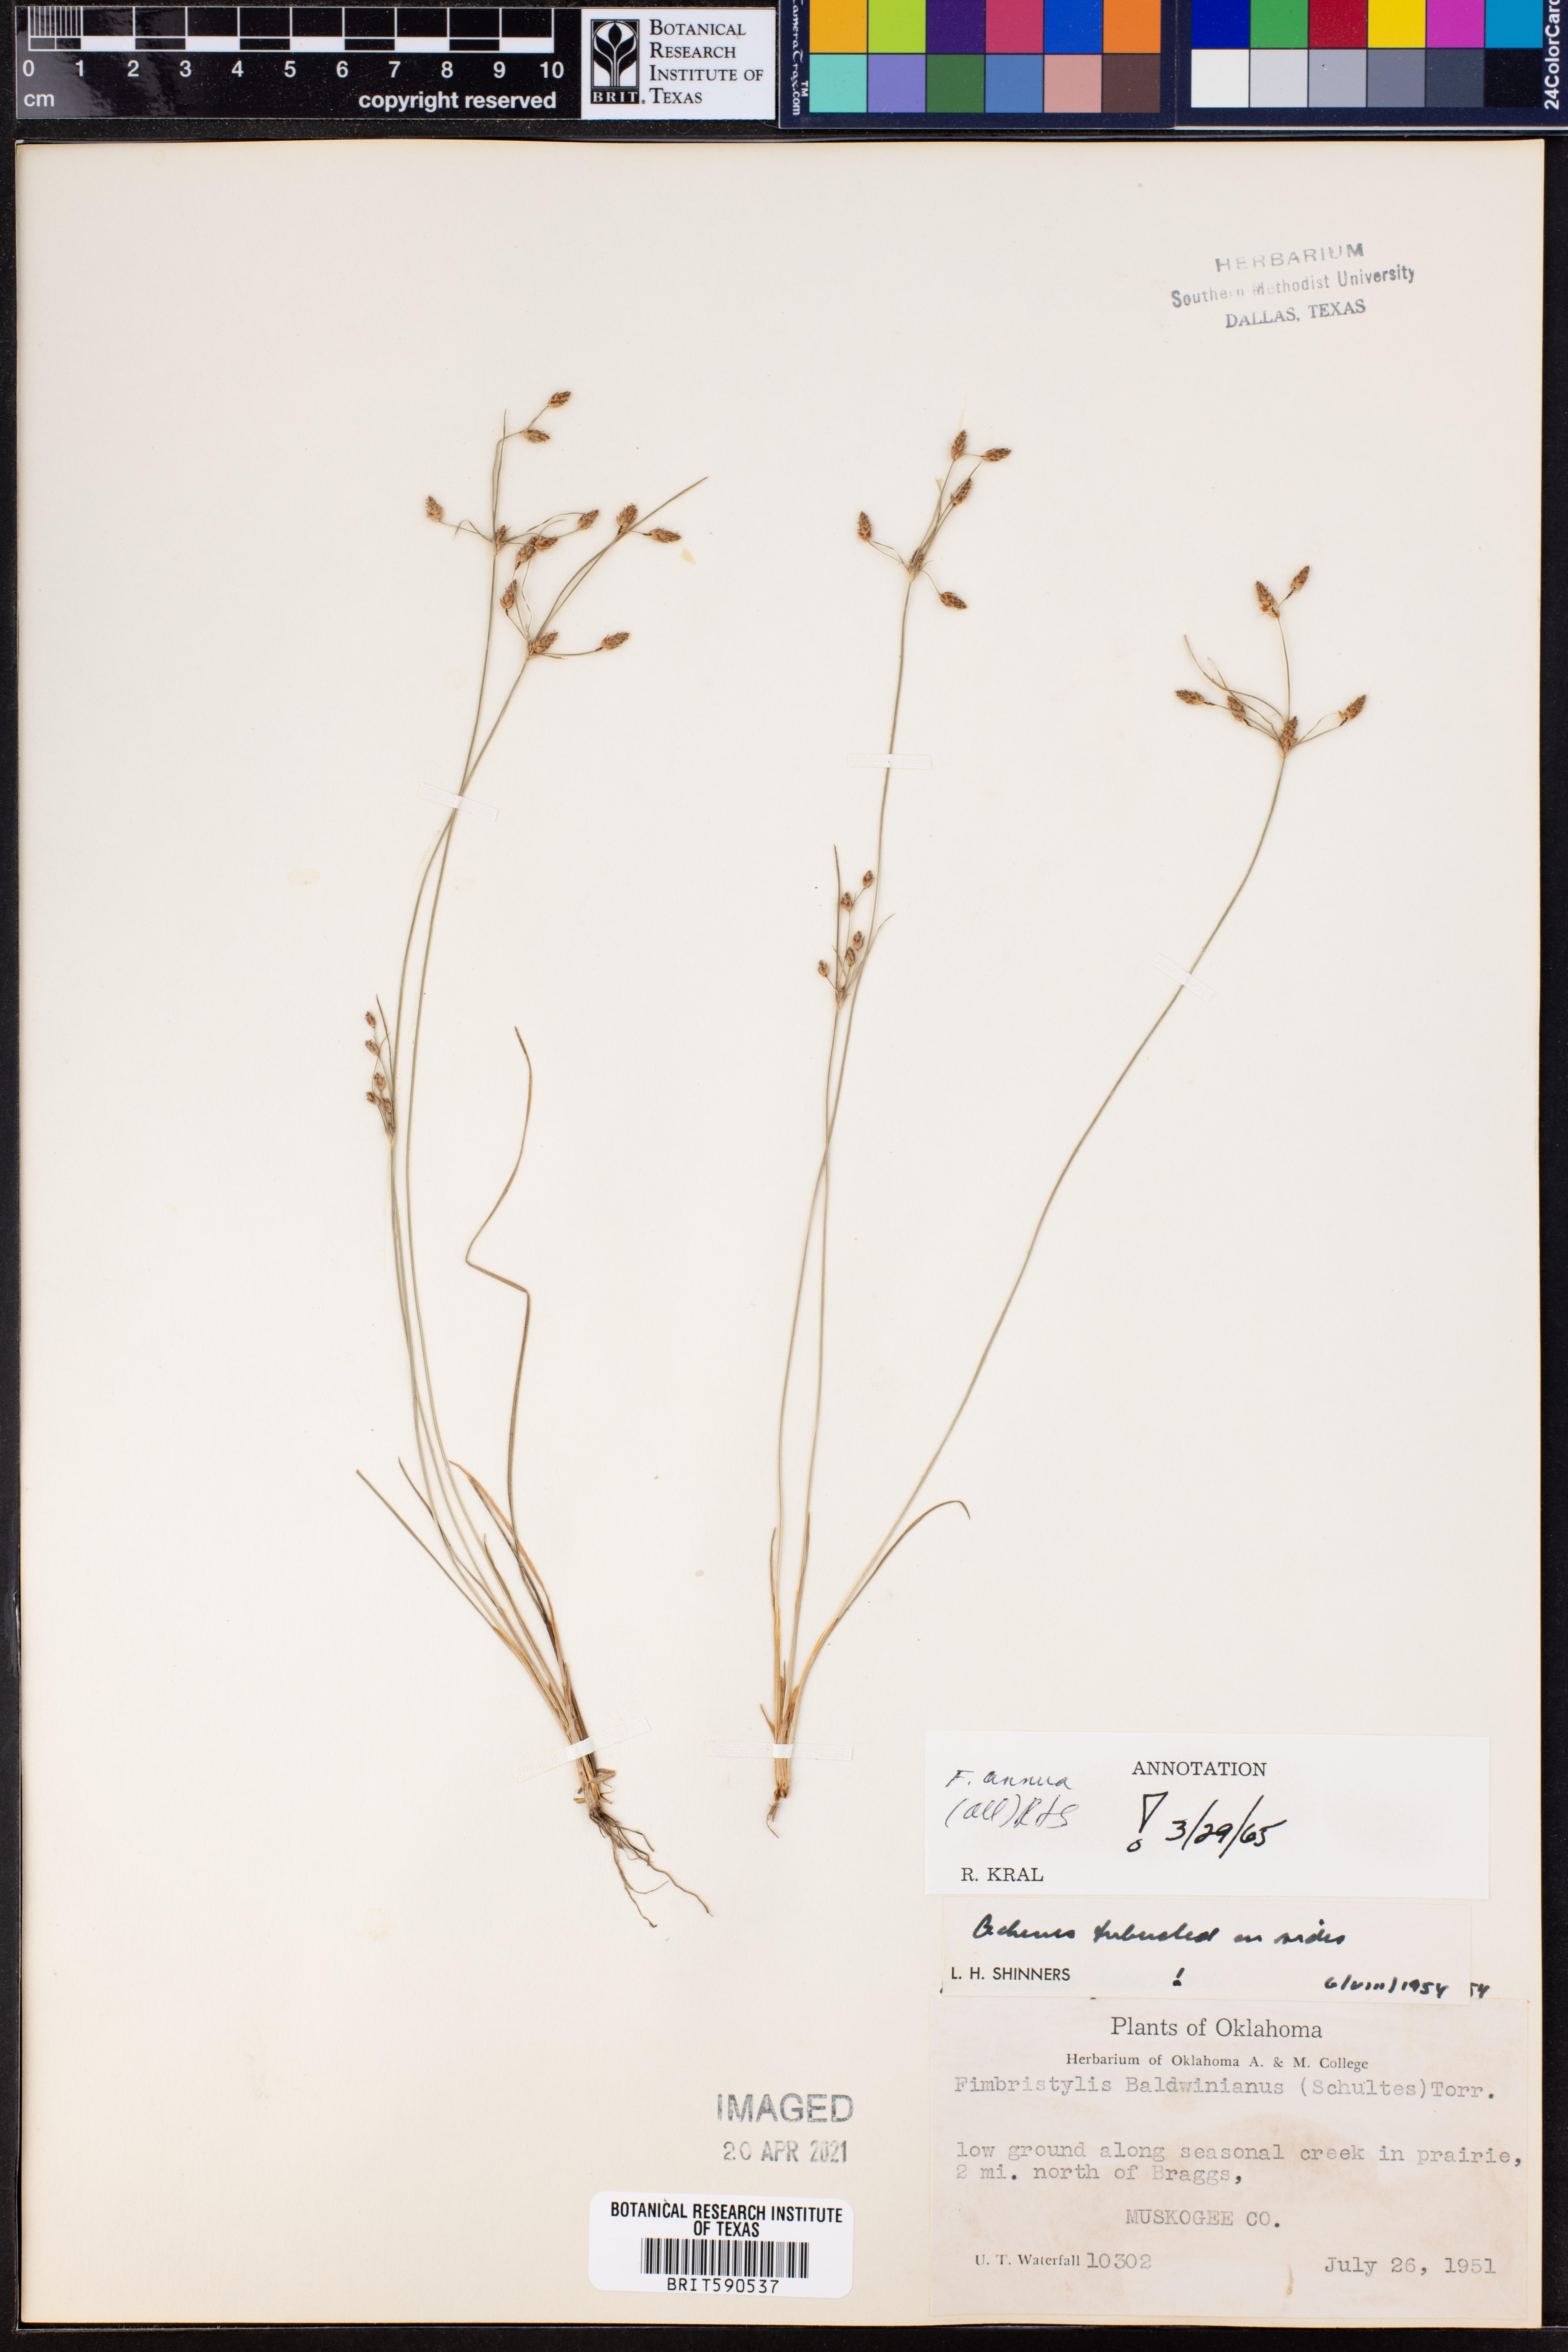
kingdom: Plantae
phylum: Tracheophyta
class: Liliopsida
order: Poales
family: Cyperaceae
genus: Fimbristylis
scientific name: Fimbristylis dichotoma
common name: Forked fimbry
